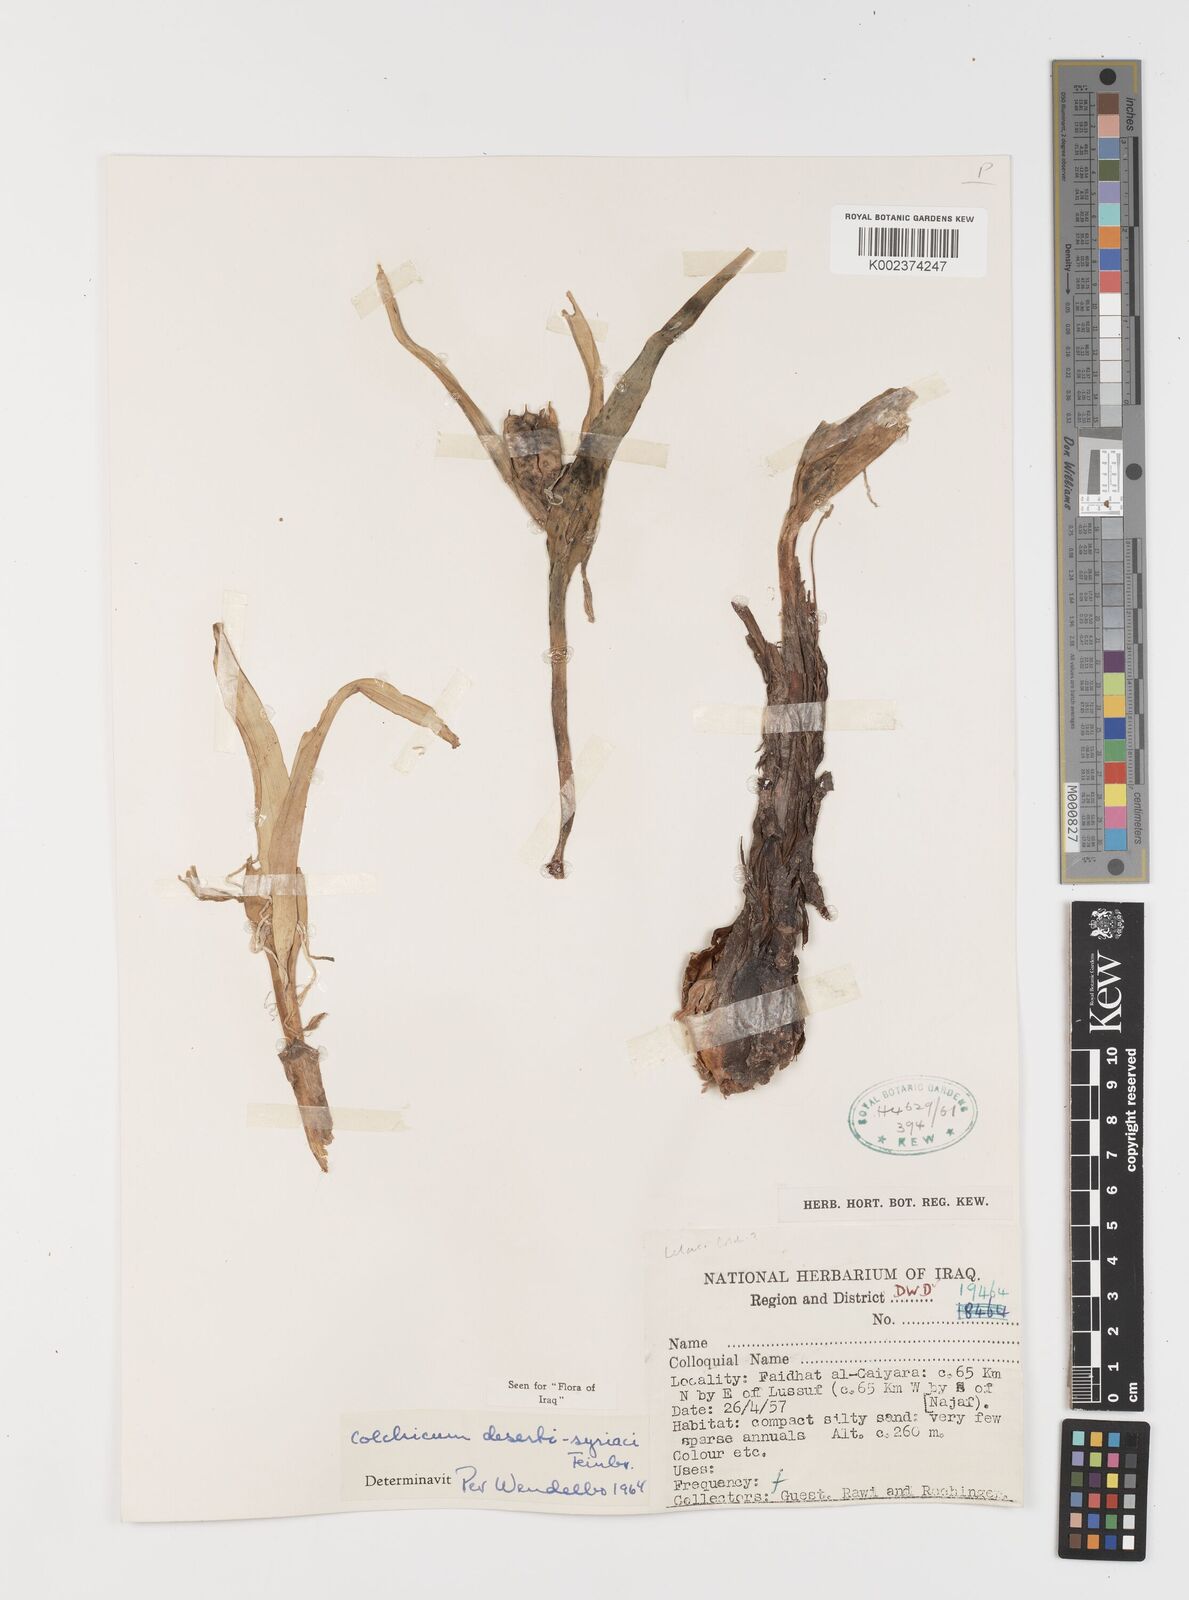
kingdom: Plantae
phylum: Tracheophyta
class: Liliopsida
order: Liliales
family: Colchicaceae
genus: Colchicum
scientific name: Colchicum schimperi
